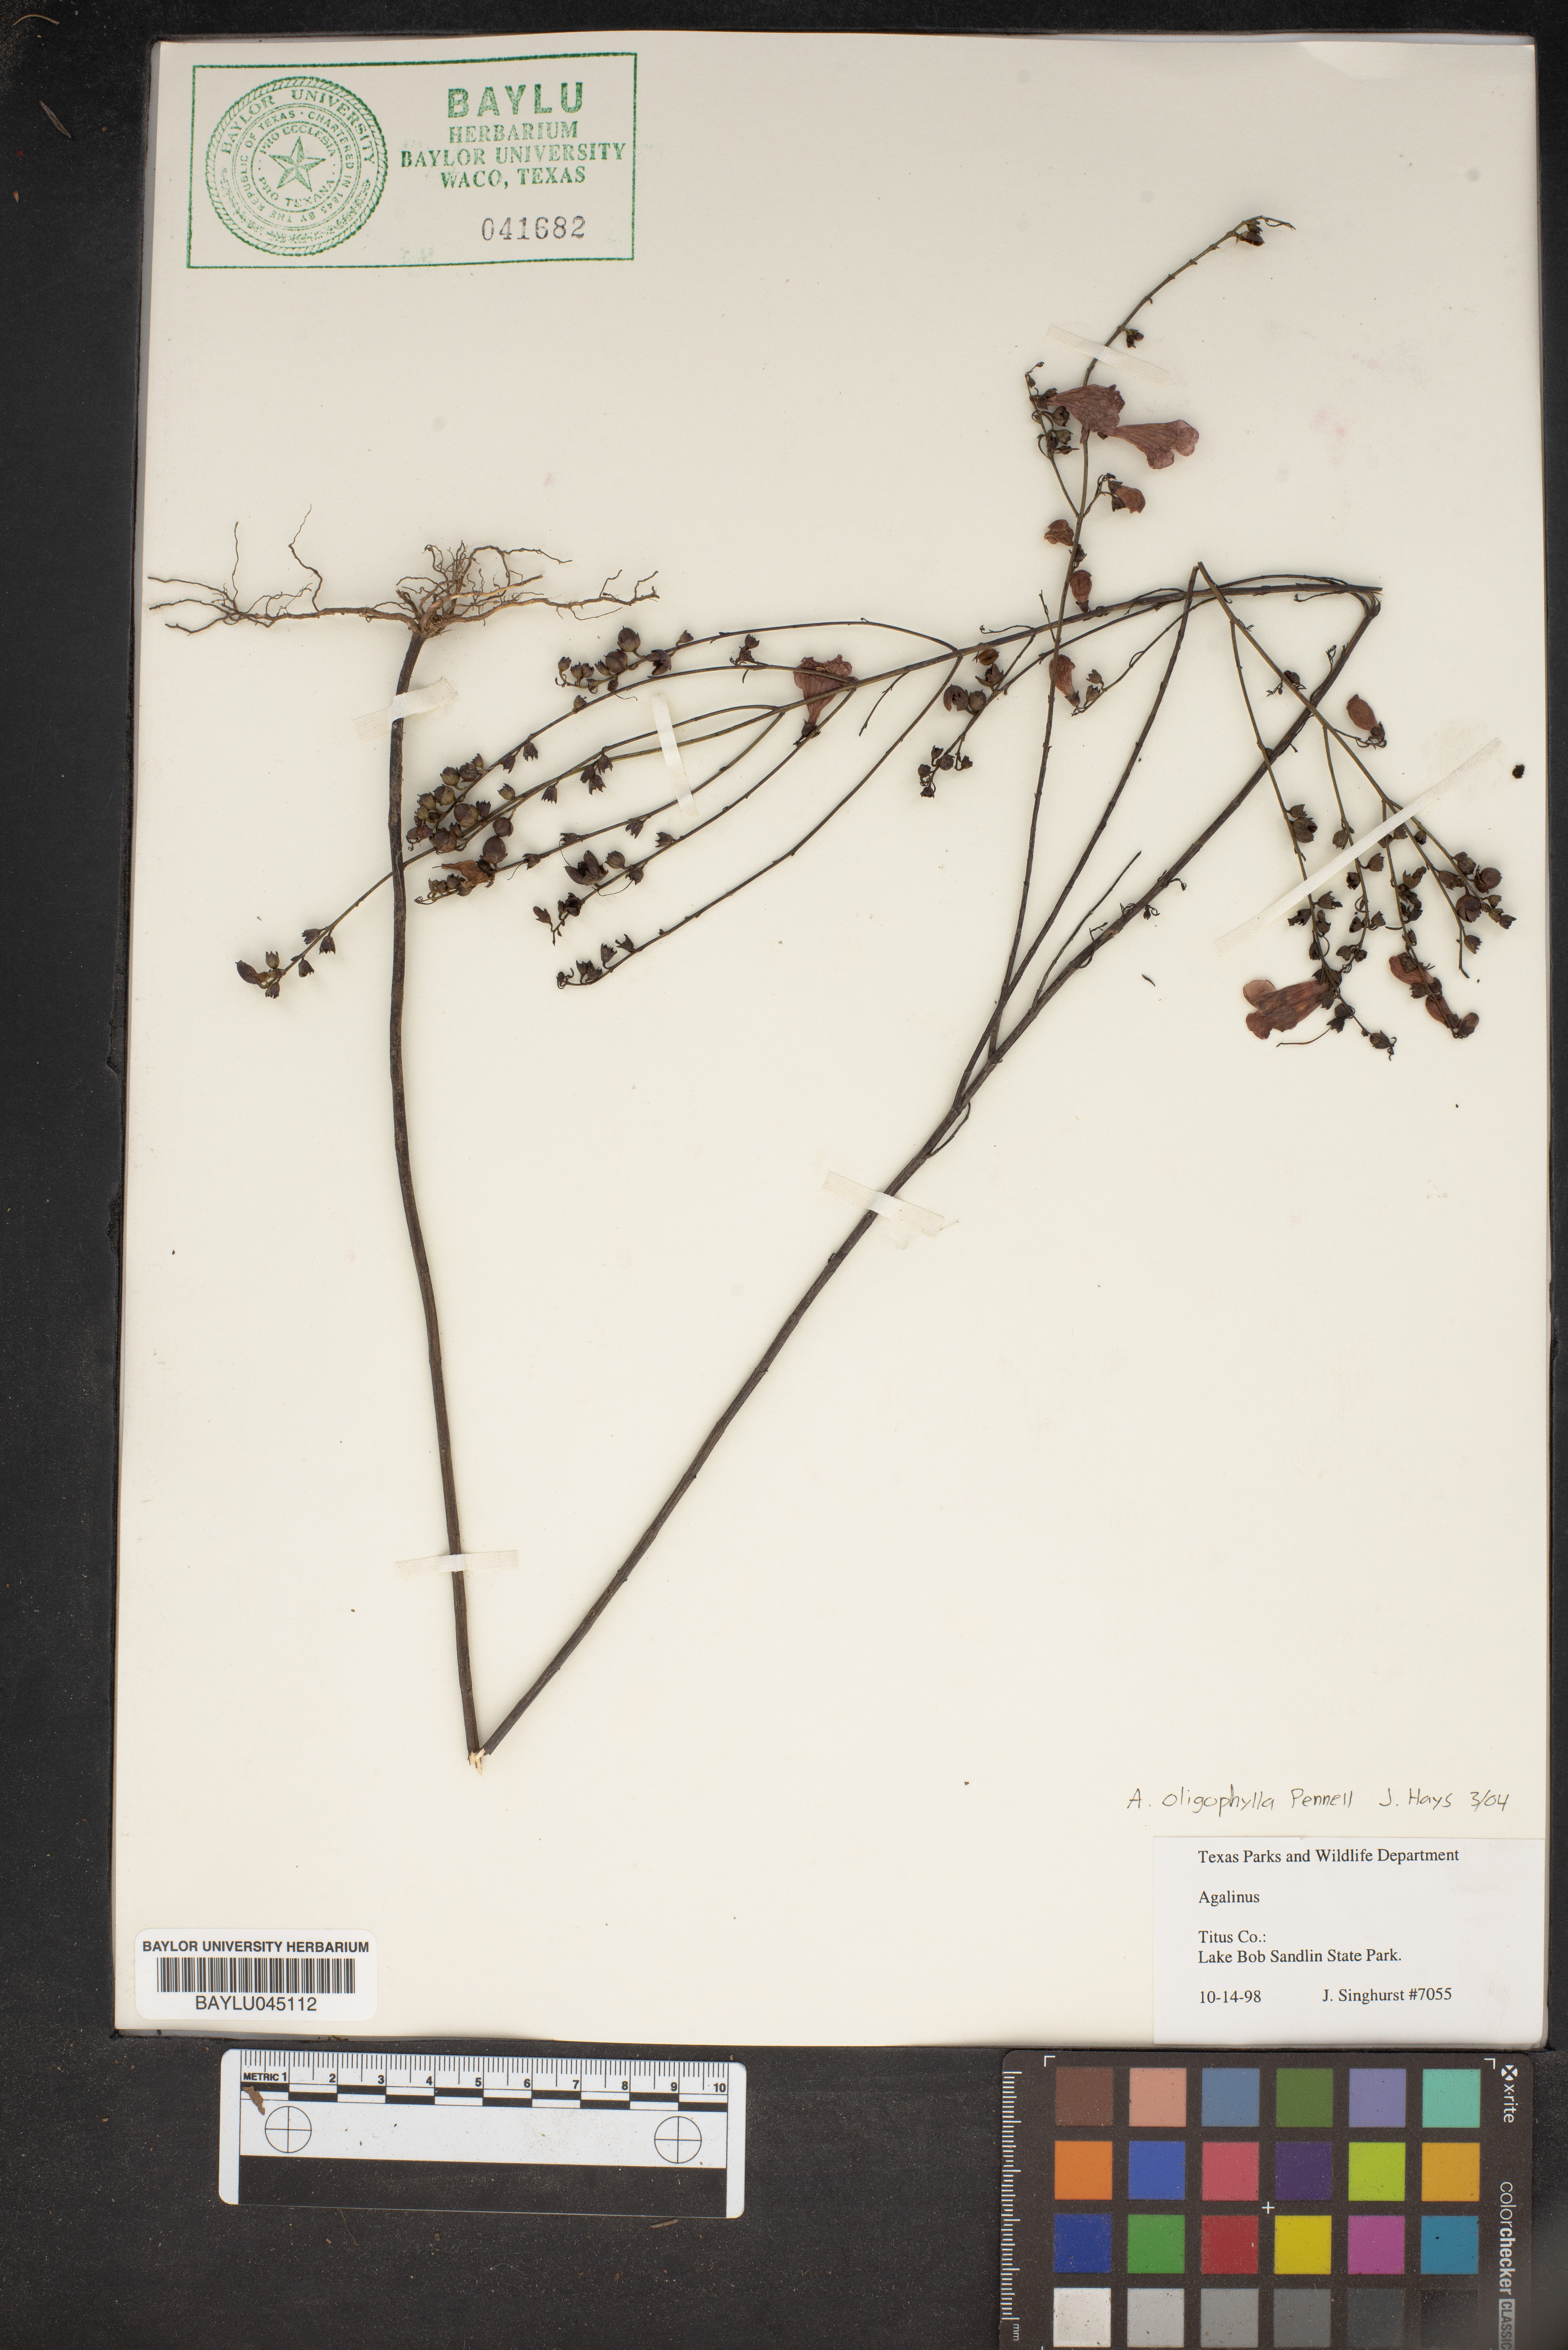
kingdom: Plantae
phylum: Tracheophyta
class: Magnoliopsida
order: Lamiales
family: Orobanchaceae
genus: Agalinis
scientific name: Agalinis oligophylla
